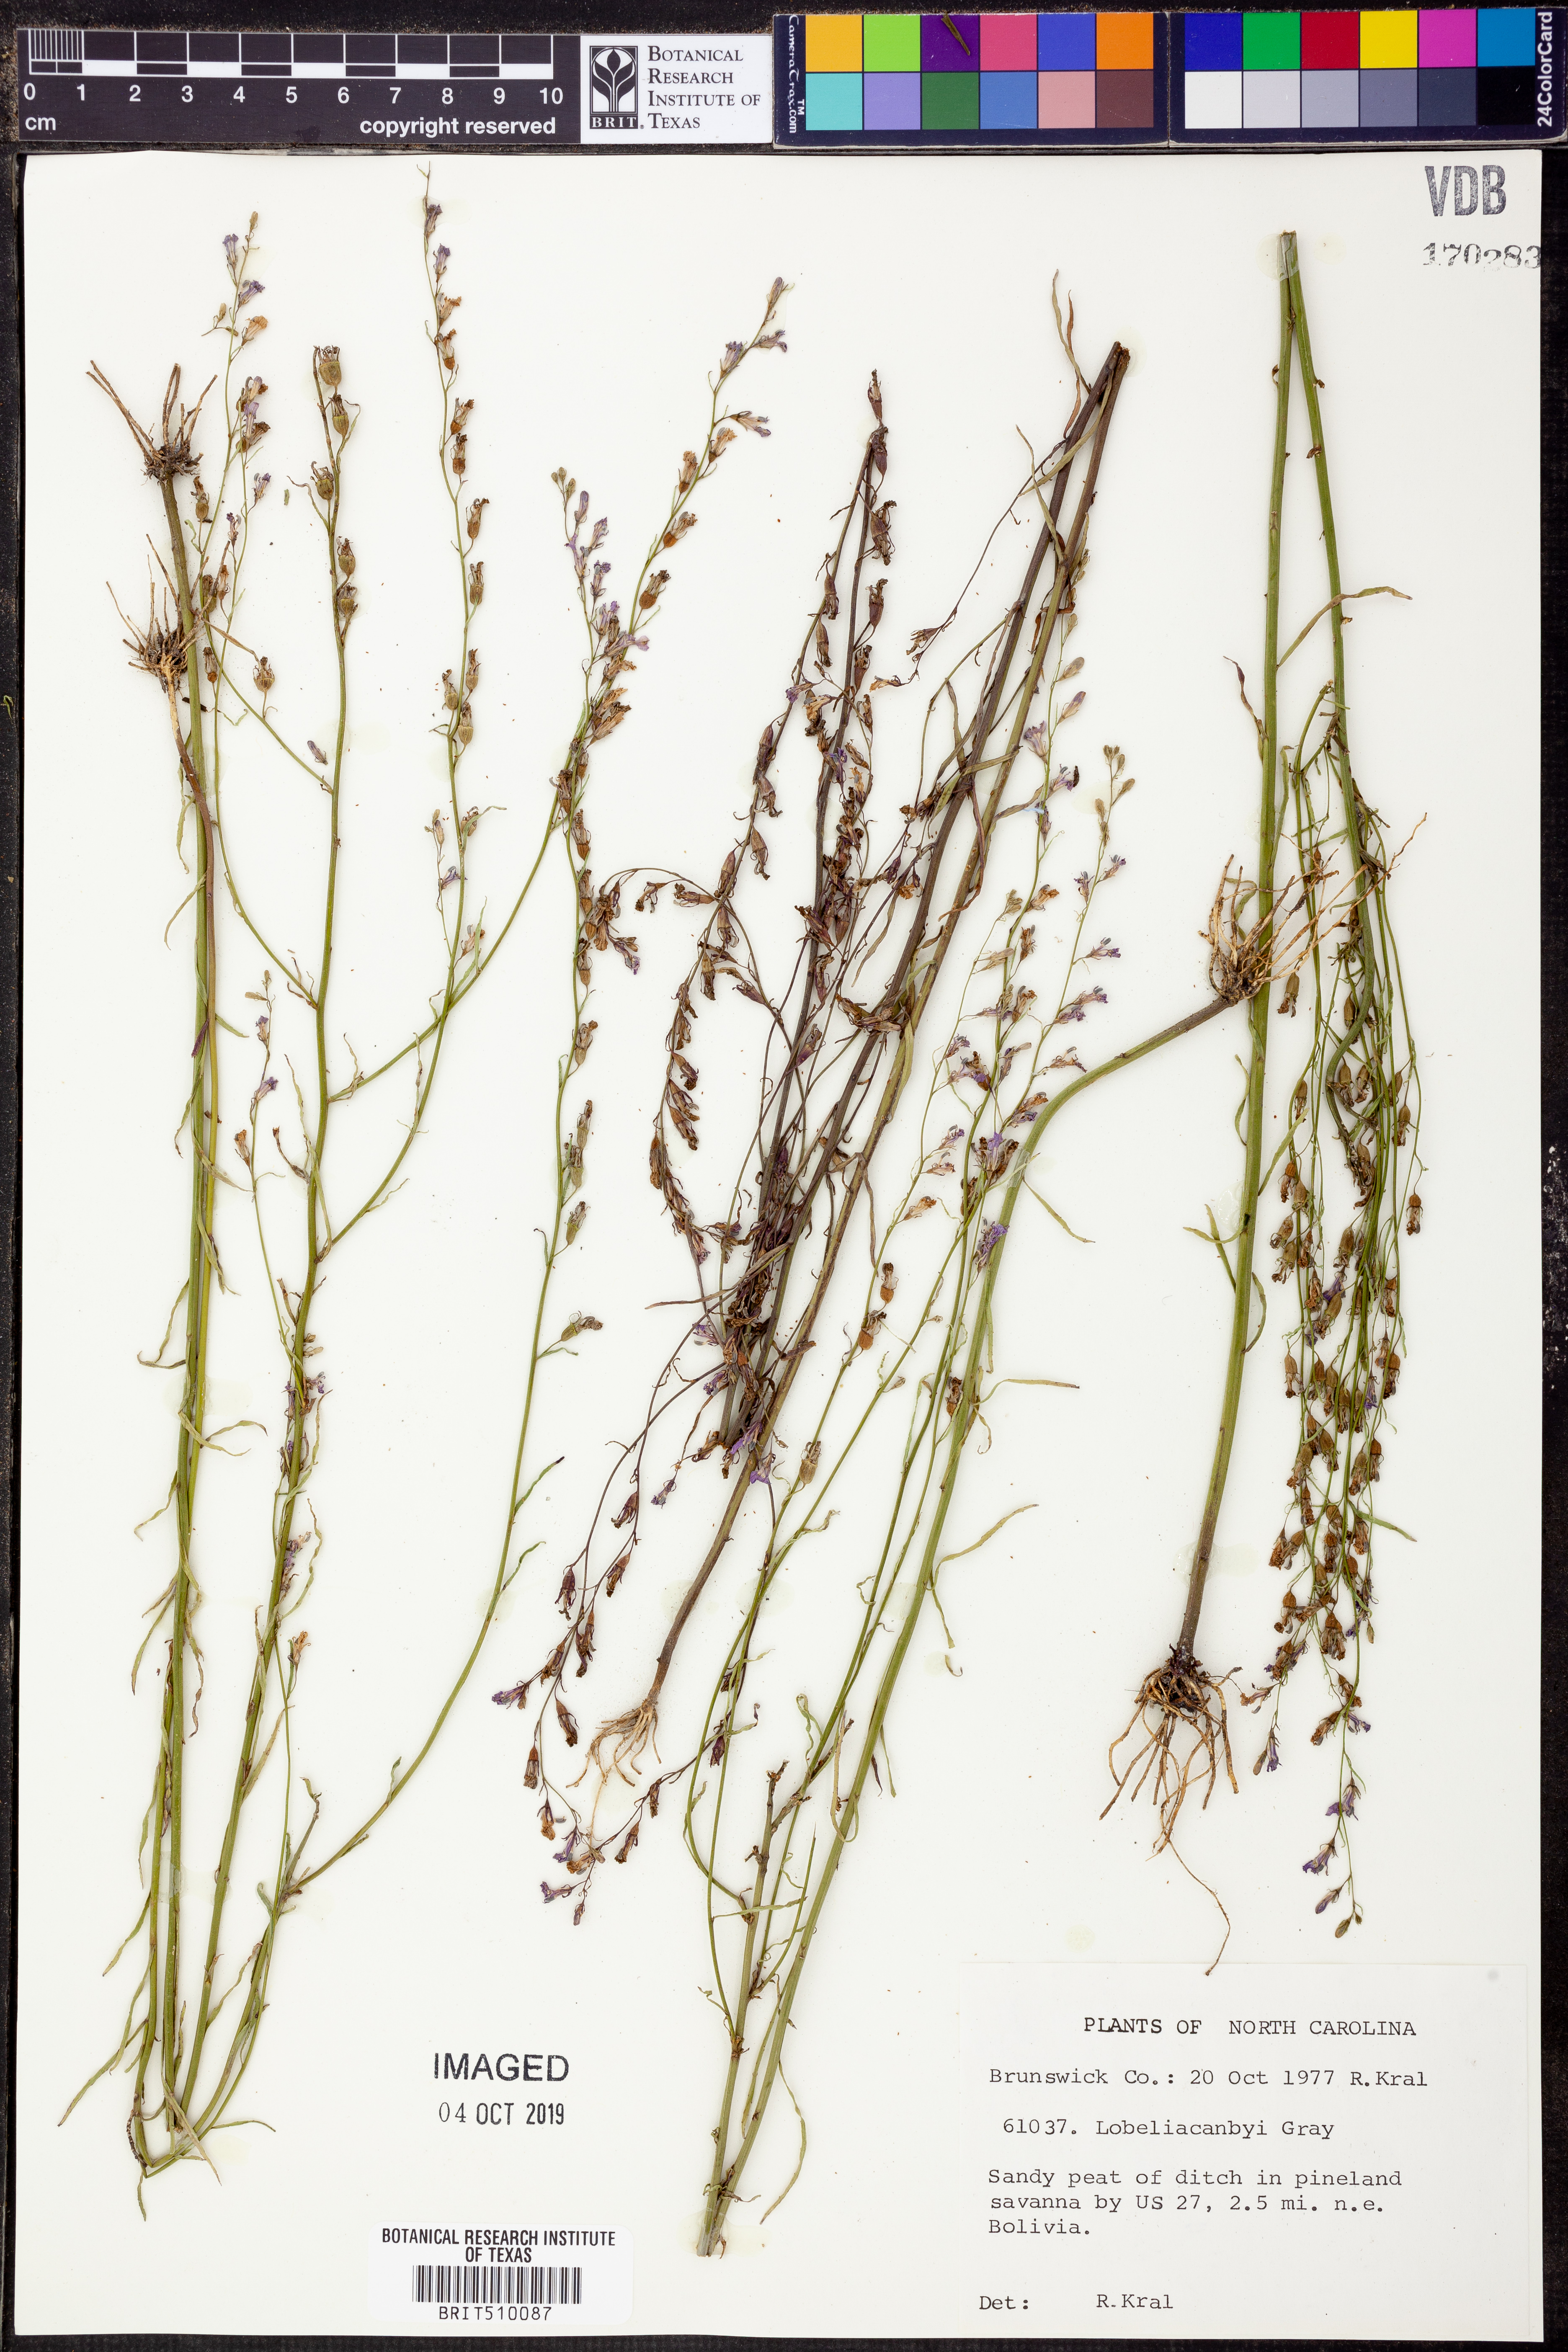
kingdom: Plantae
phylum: Tracheophyta
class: Magnoliopsida
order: Asterales
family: Campanulaceae
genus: Lobelia
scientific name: Lobelia canbyi
